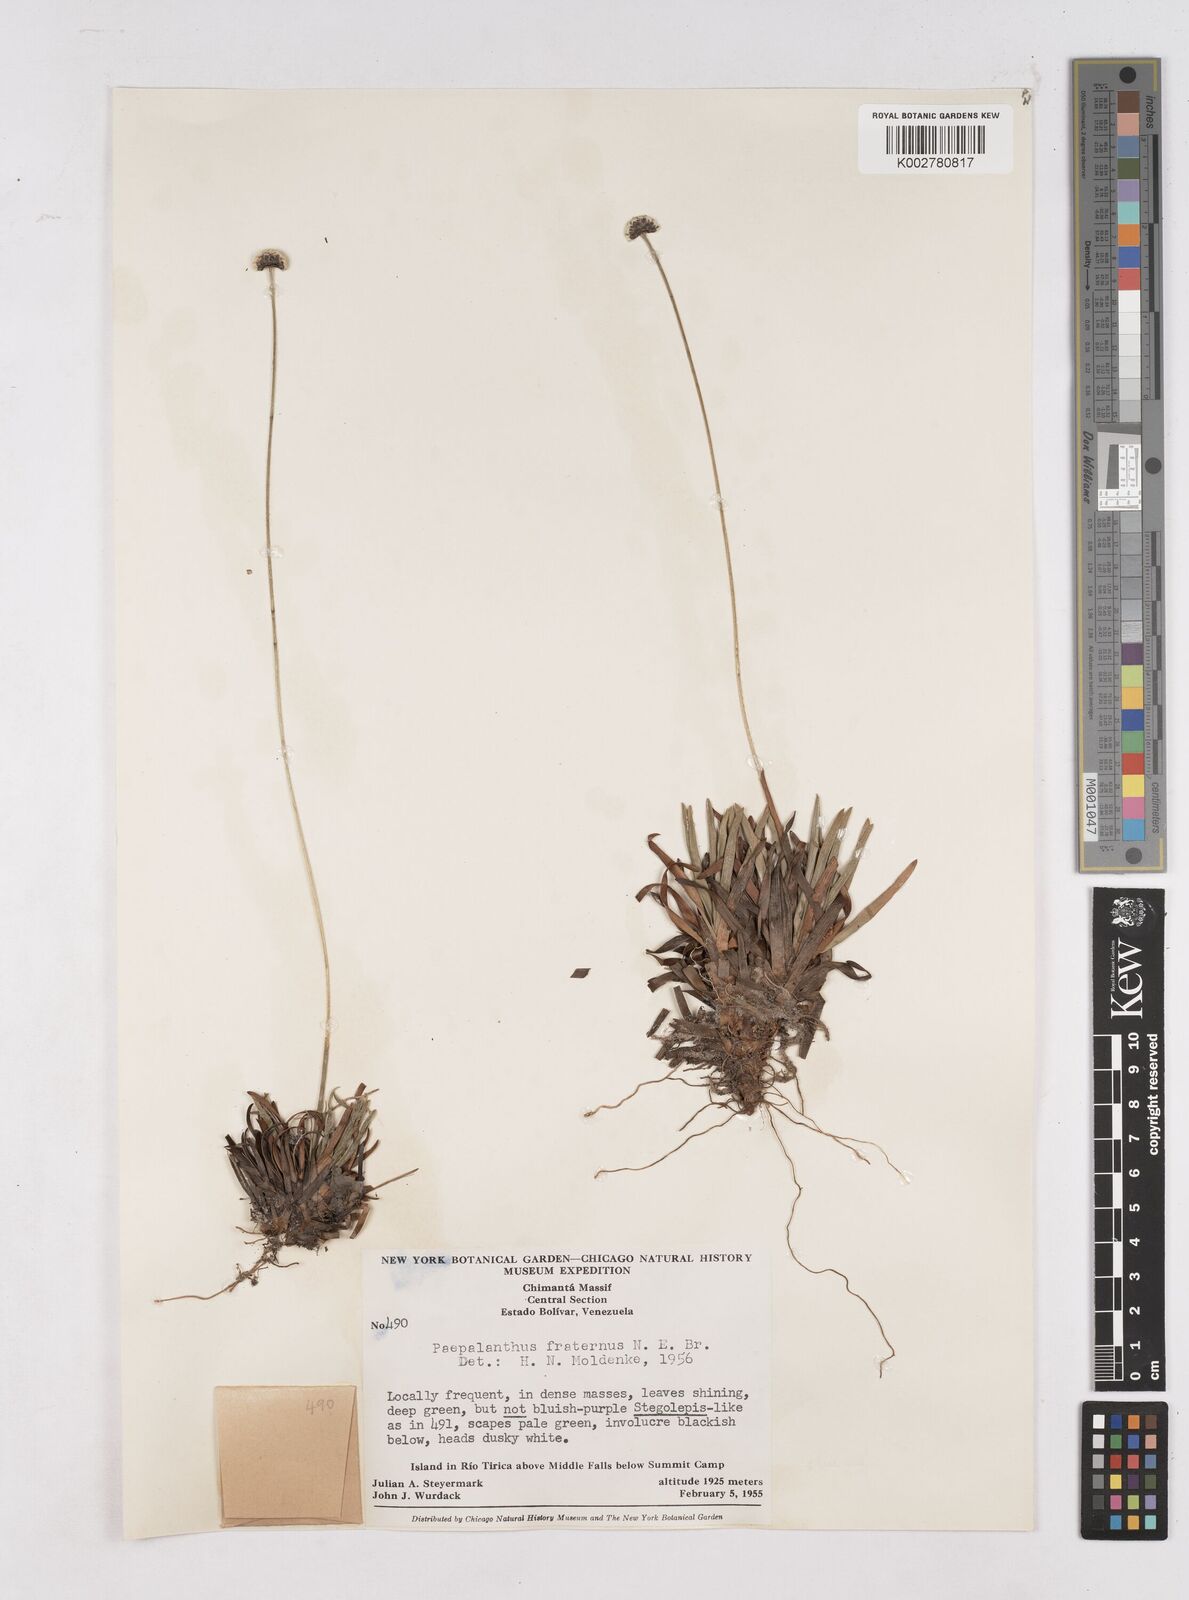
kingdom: Plantae
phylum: Tracheophyta
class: Liliopsida
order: Poales
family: Eriocaulaceae
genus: Paepalanthus
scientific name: Paepalanthus fraternus
